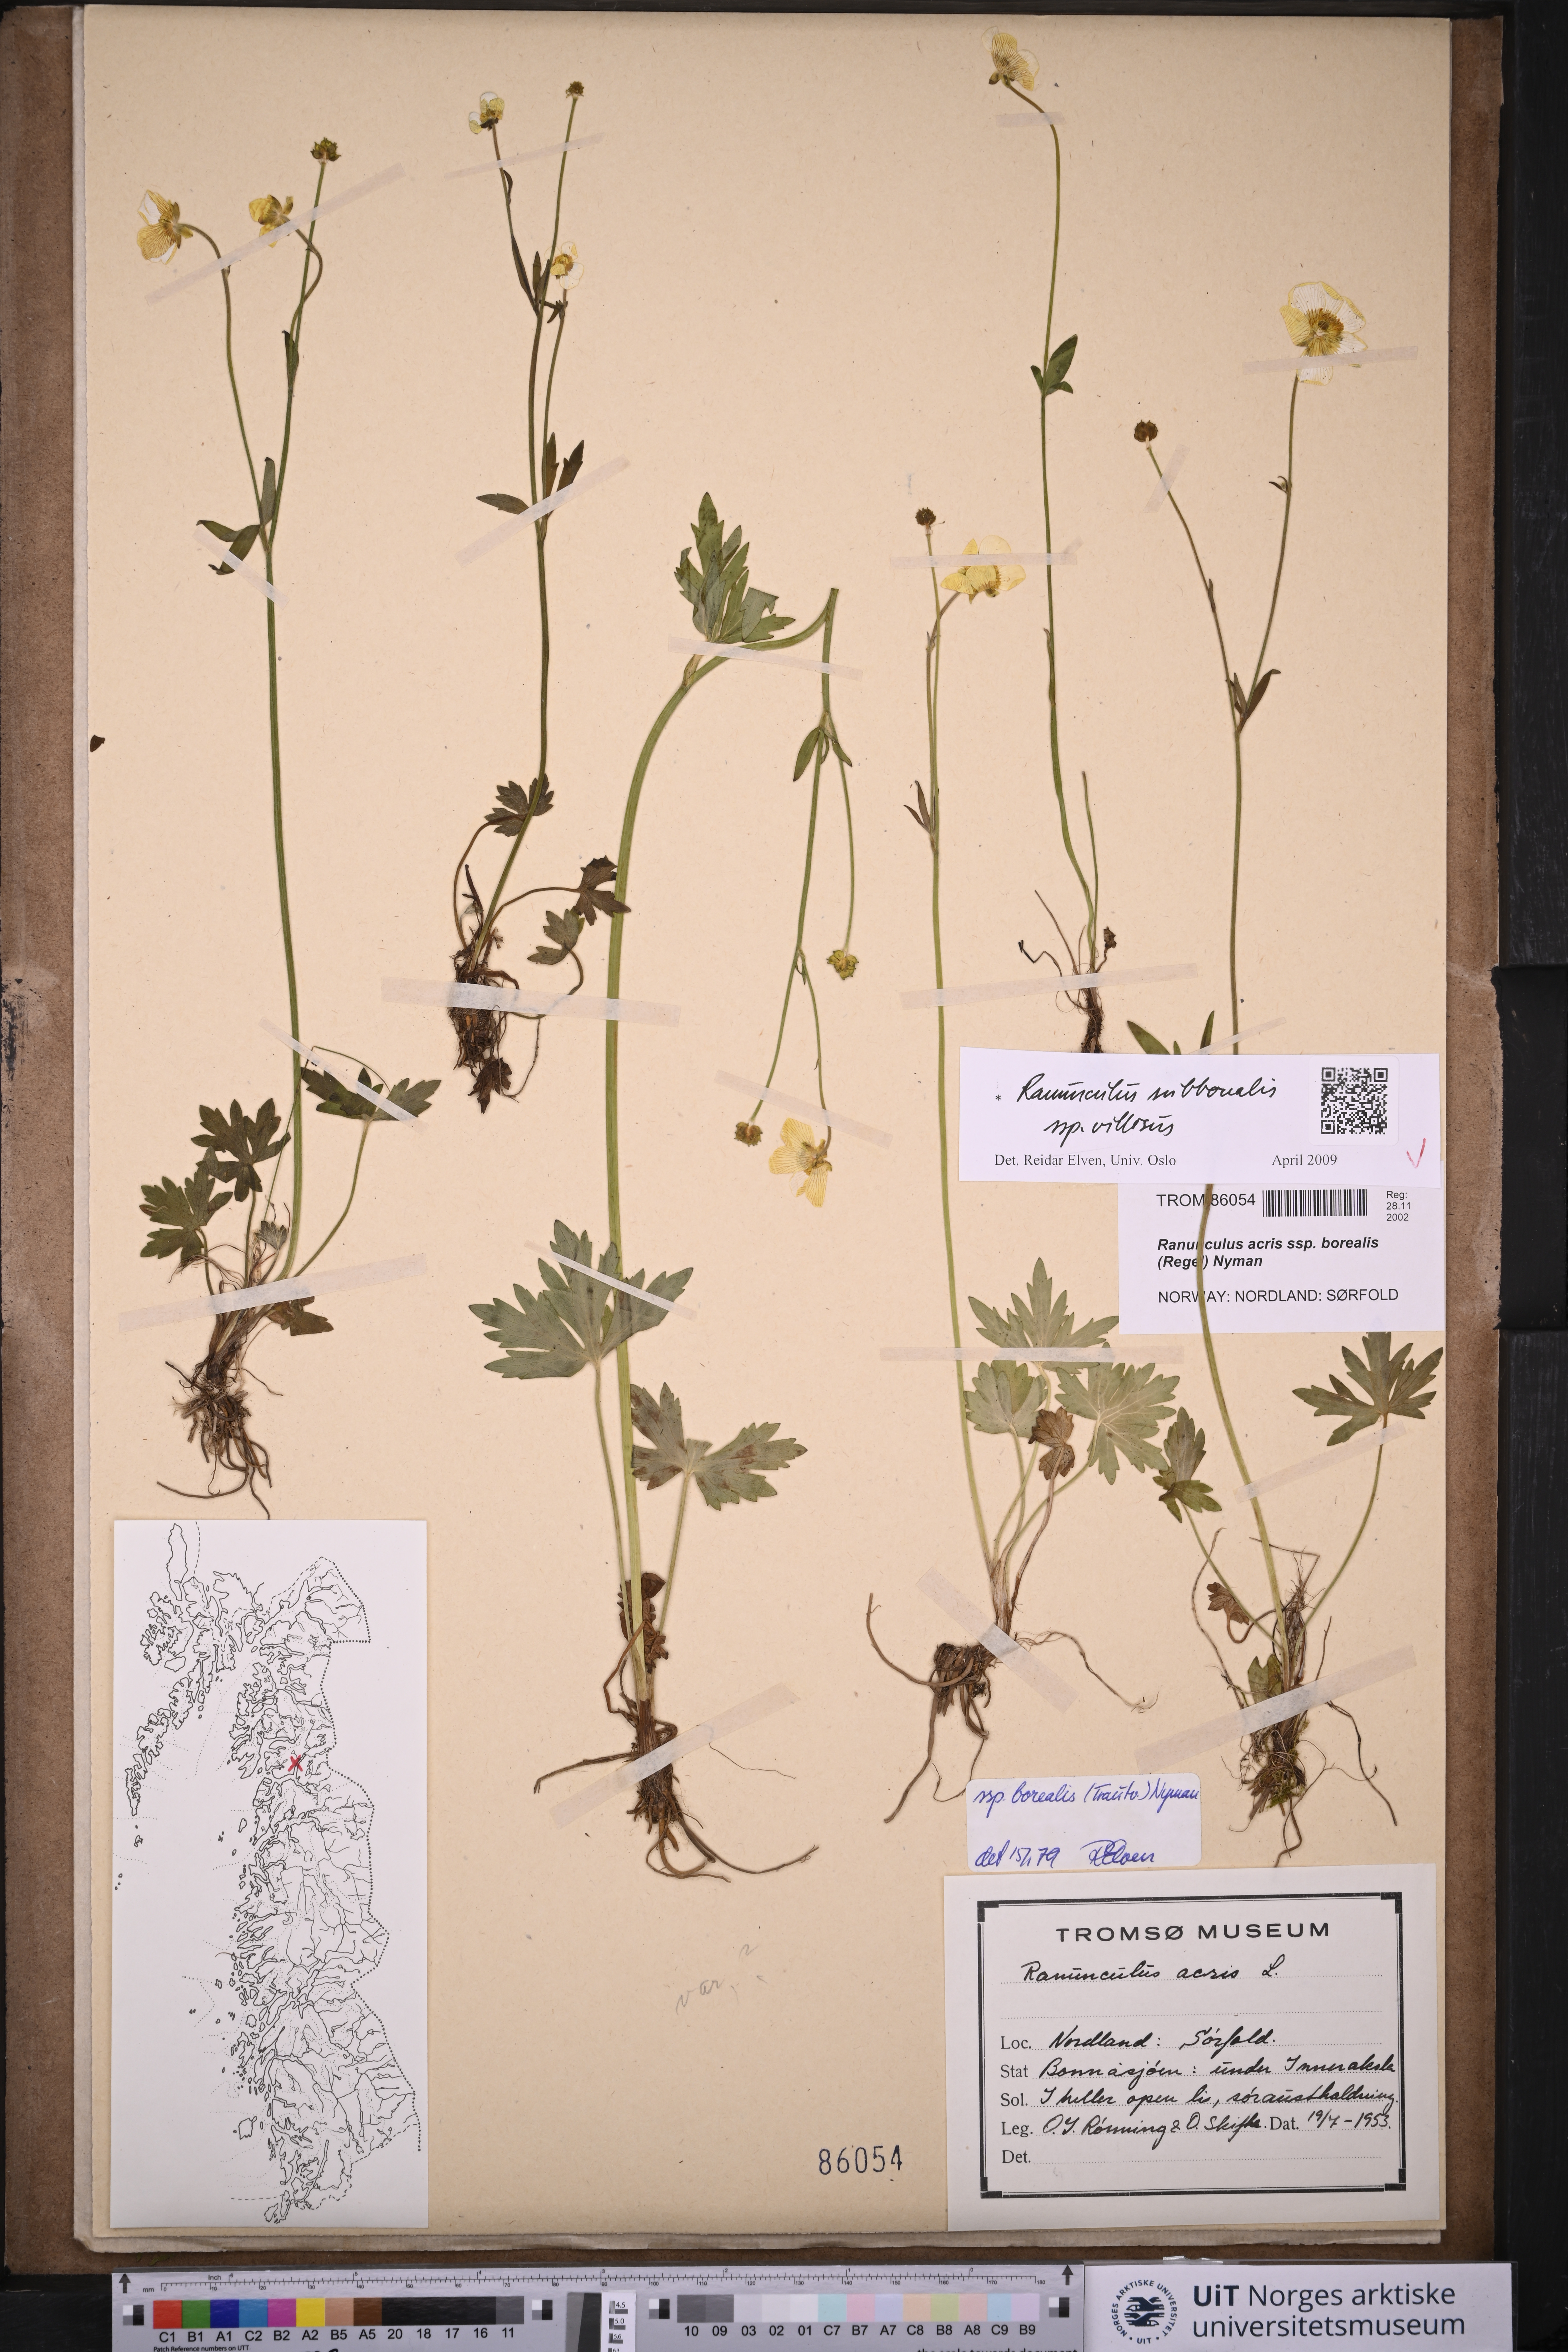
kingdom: Plantae
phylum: Tracheophyta
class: Magnoliopsida
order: Ranunculales
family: Ranunculaceae
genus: Ranunculus
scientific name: Ranunculus propinquus
